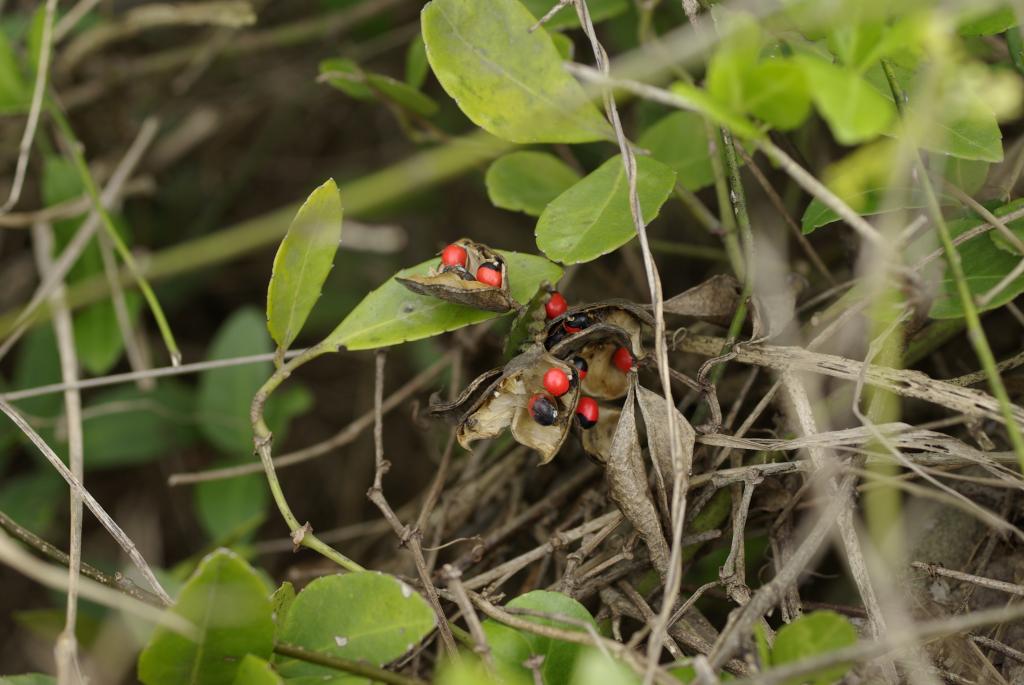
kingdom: Plantae
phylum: Tracheophyta
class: Magnoliopsida
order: Fabales
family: Fabaceae
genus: Abrus
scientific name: Abrus precatorius
